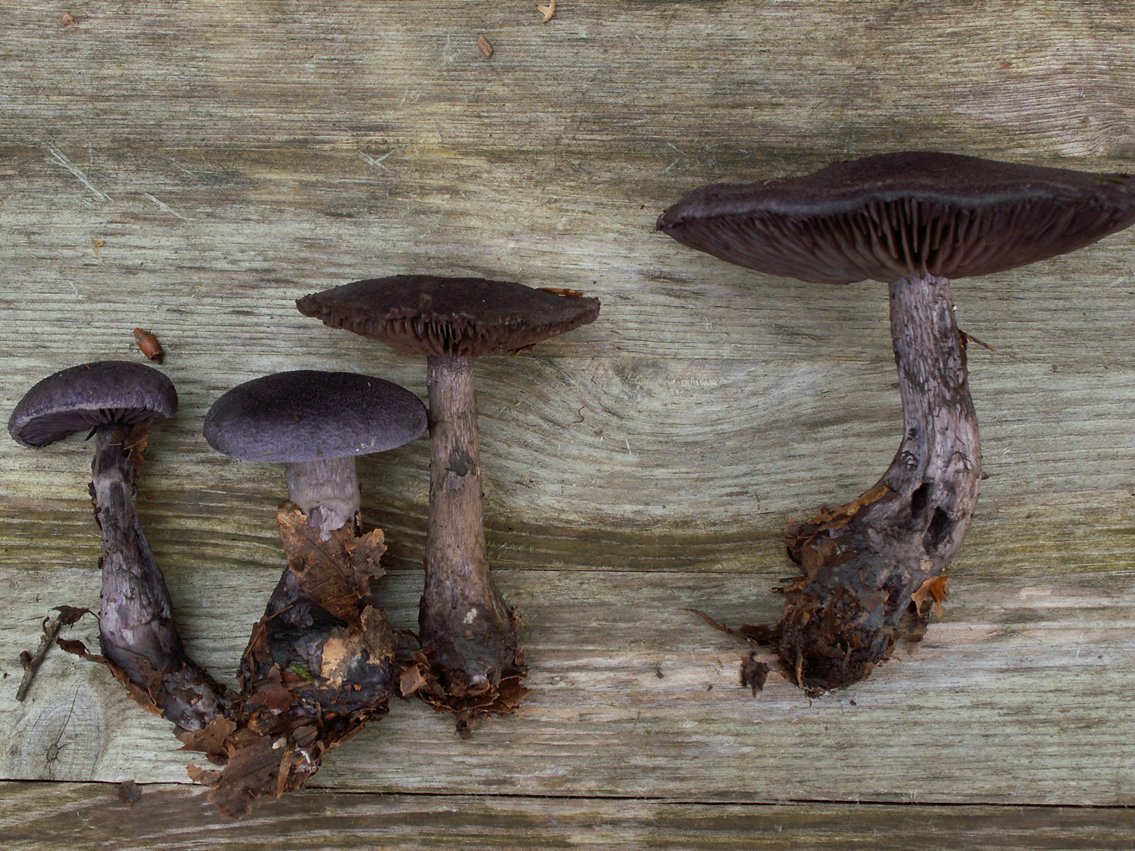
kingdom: Fungi
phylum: Basidiomycota
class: Agaricomycetes
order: Agaricales
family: Cortinariaceae
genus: Cortinarius
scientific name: Cortinarius violaceus
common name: mørkviolet slørhat
